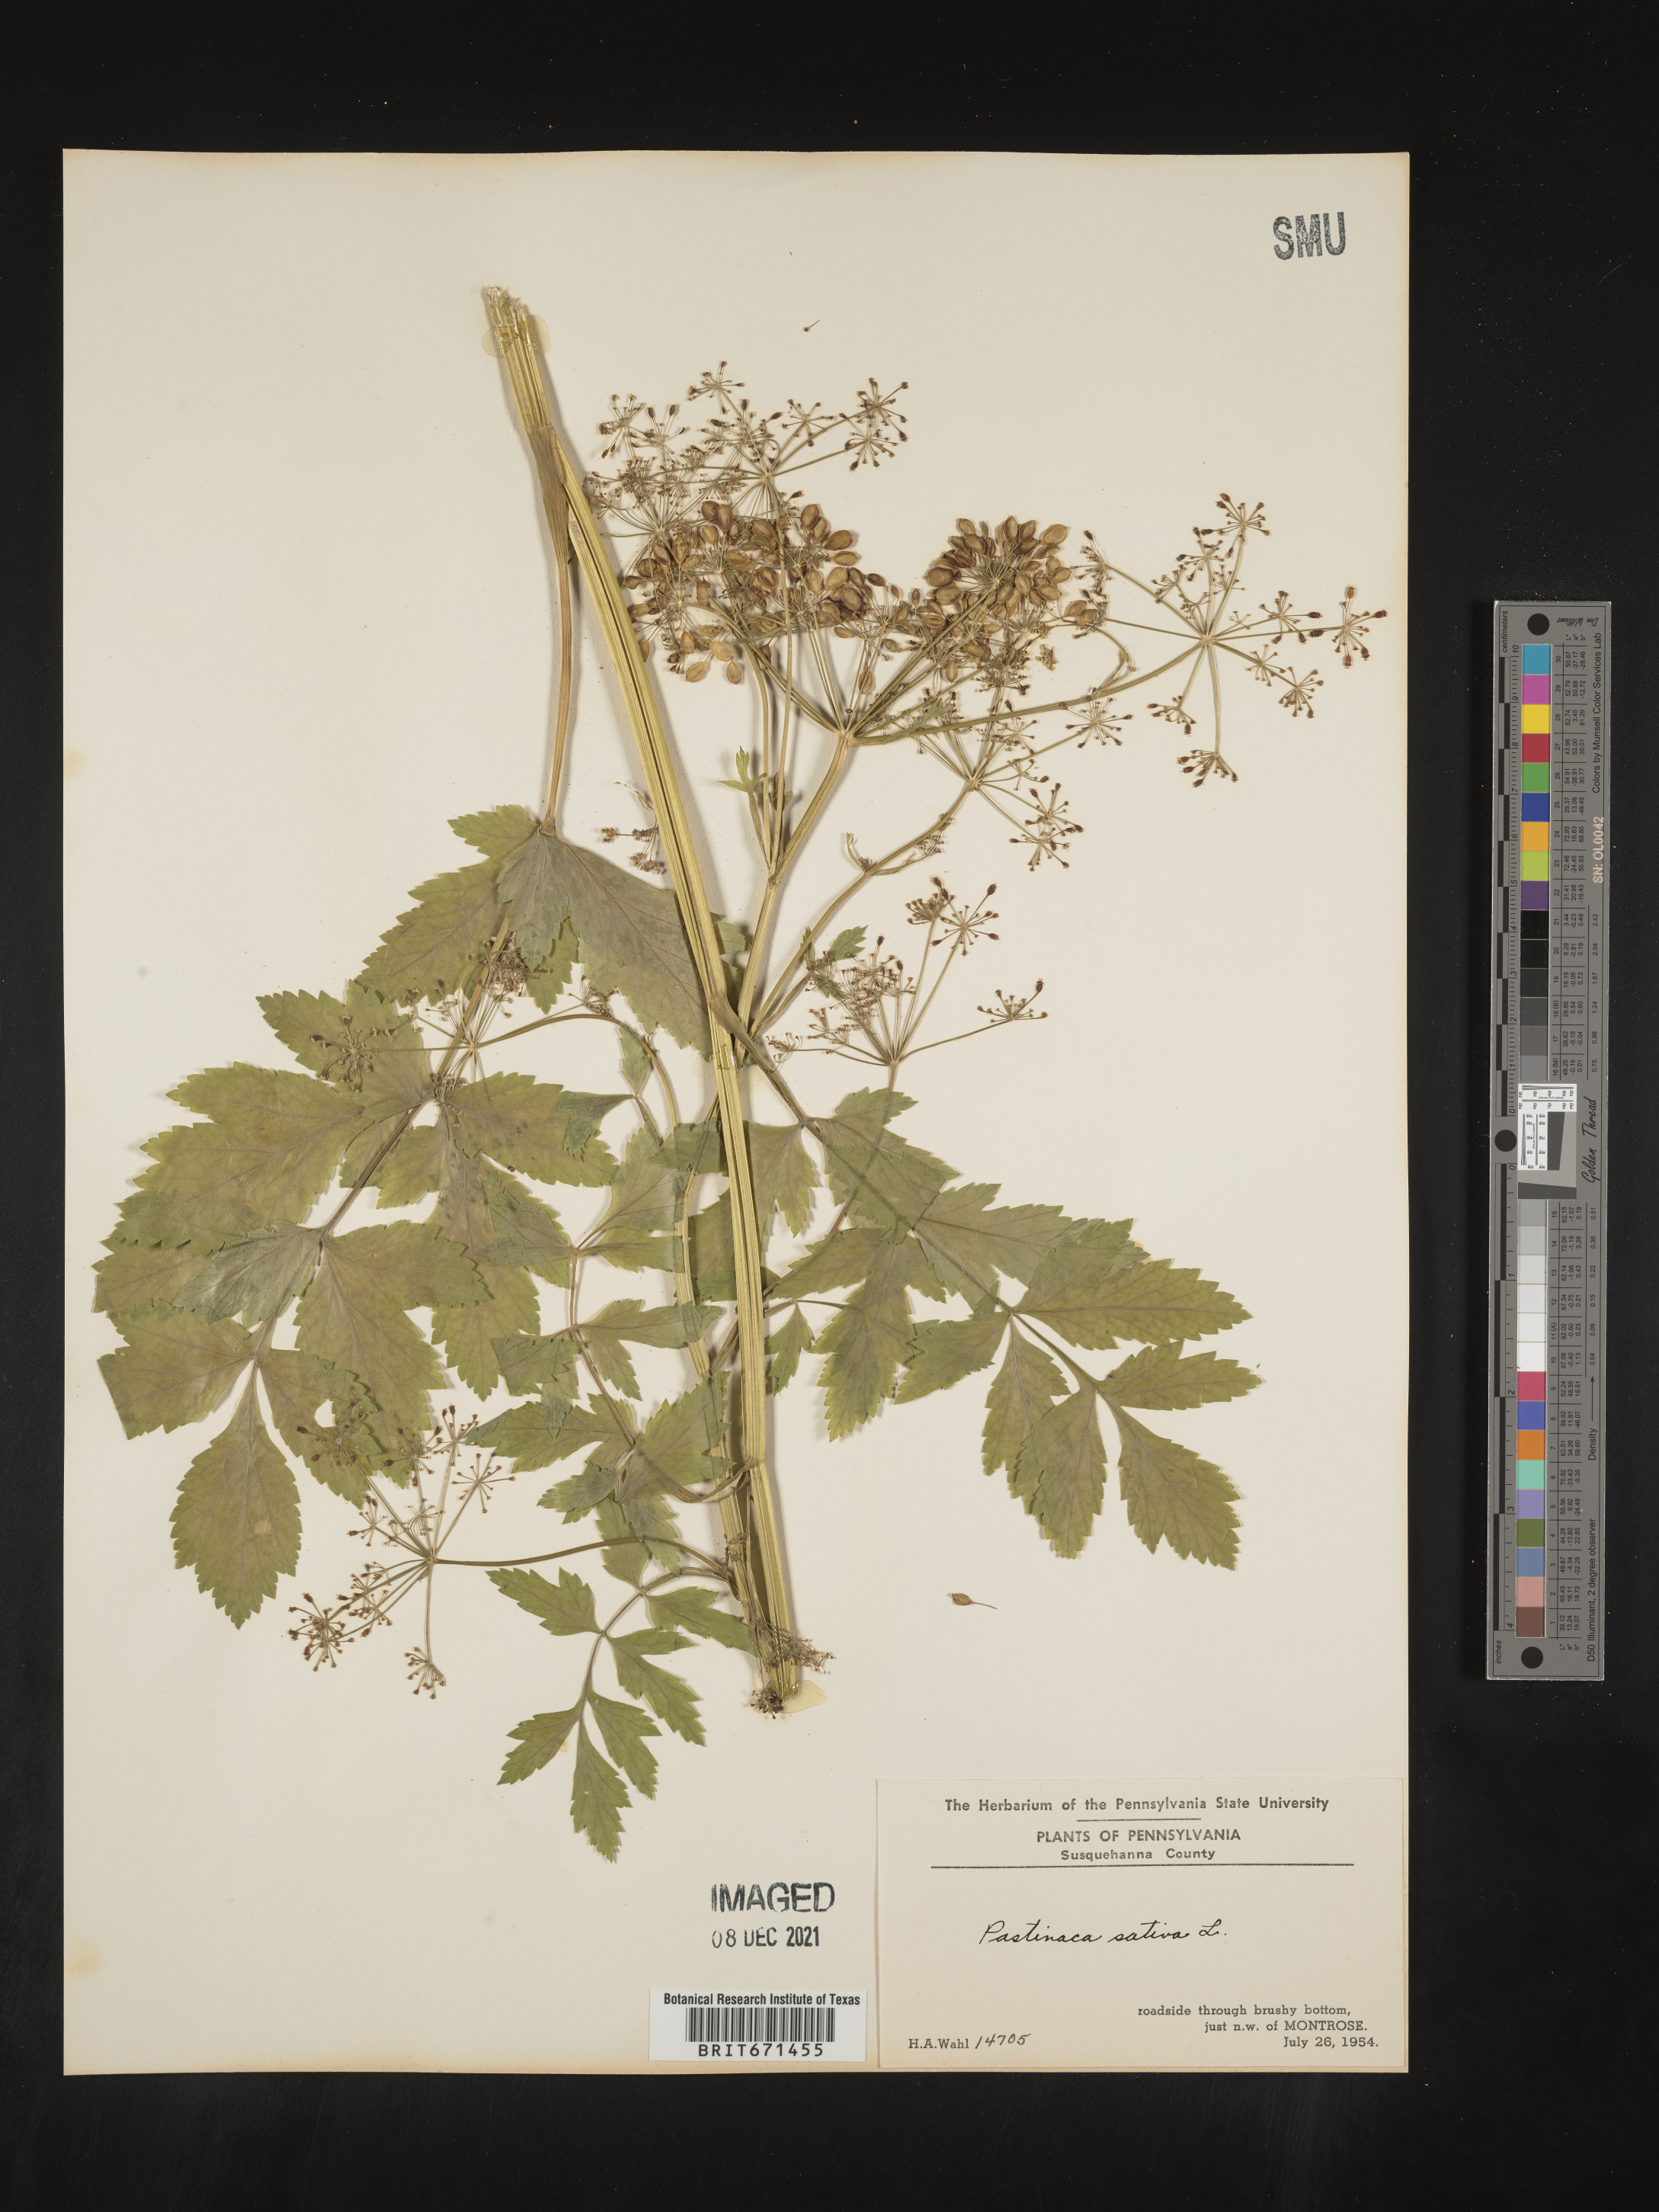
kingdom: Plantae
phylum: Tracheophyta
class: Magnoliopsida
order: Apiales
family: Apiaceae
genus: Pastinaca
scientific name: Pastinaca
